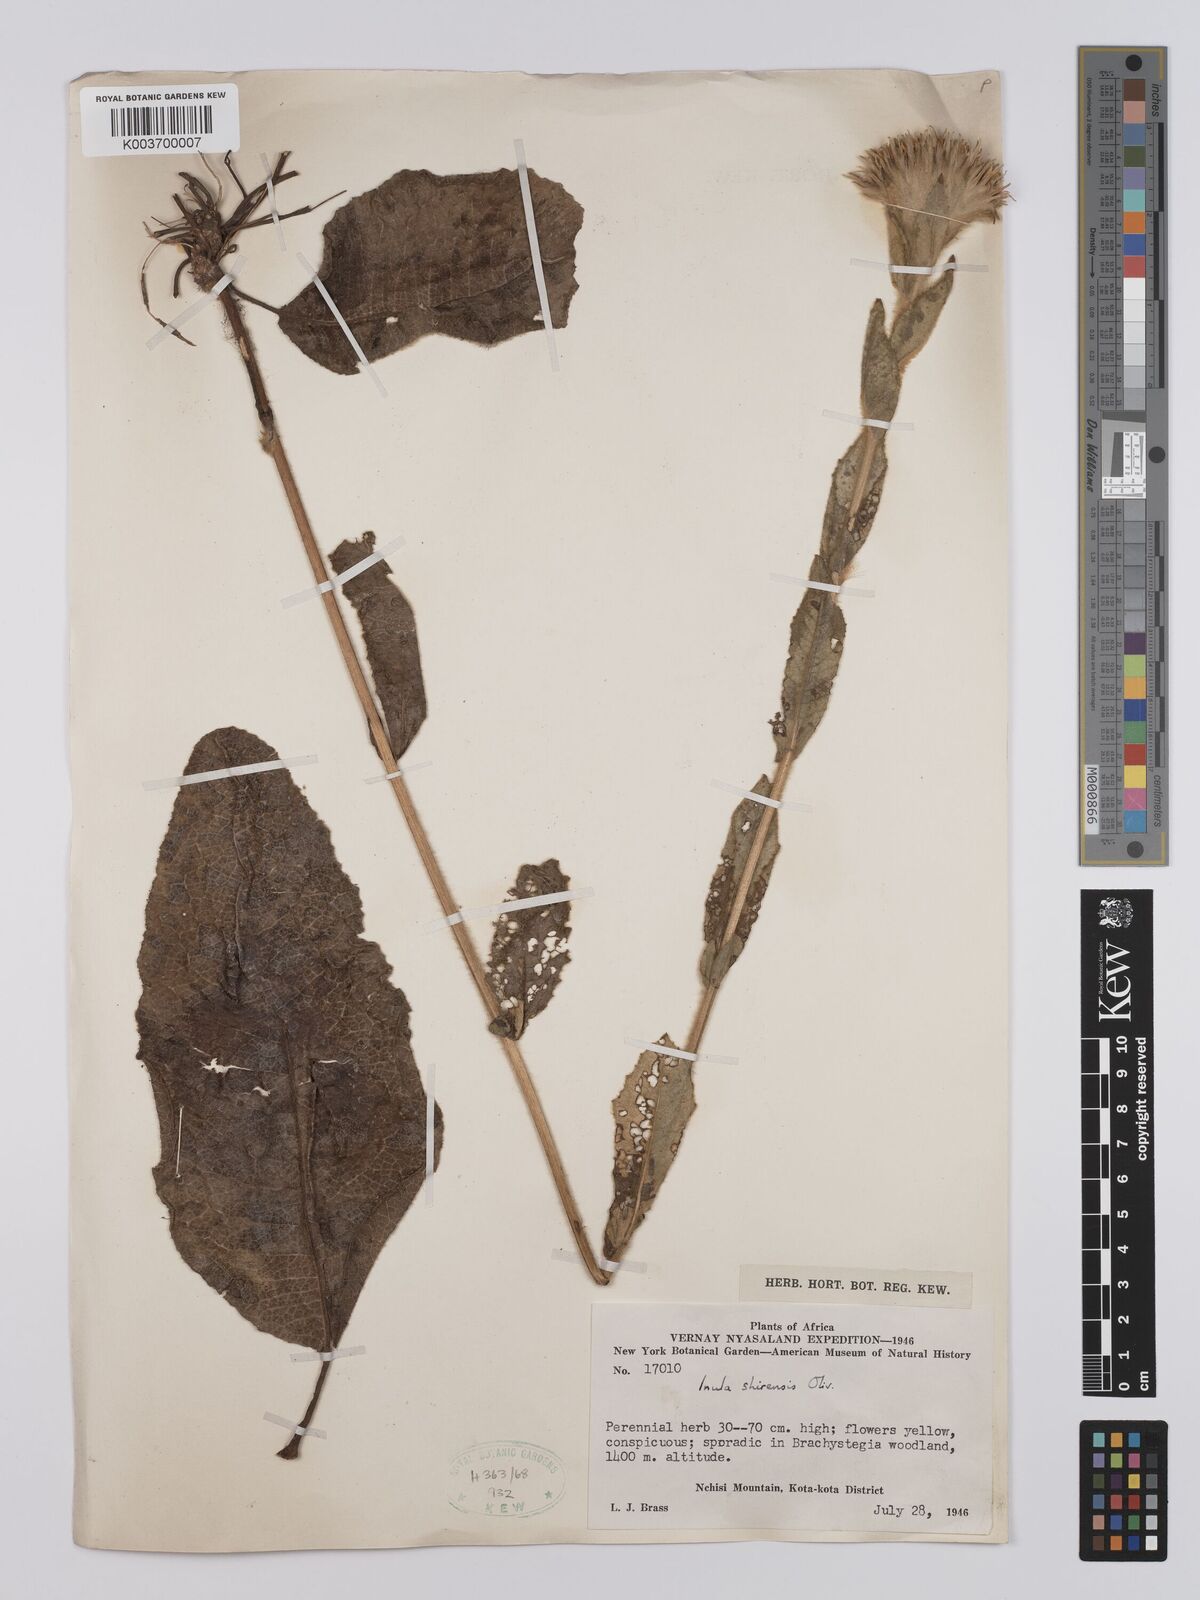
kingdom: Plantae
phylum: Tracheophyta
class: Magnoliopsida
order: Asterales
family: Asteraceae
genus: Monactinocephalus
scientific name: Monactinocephalus shirensis
